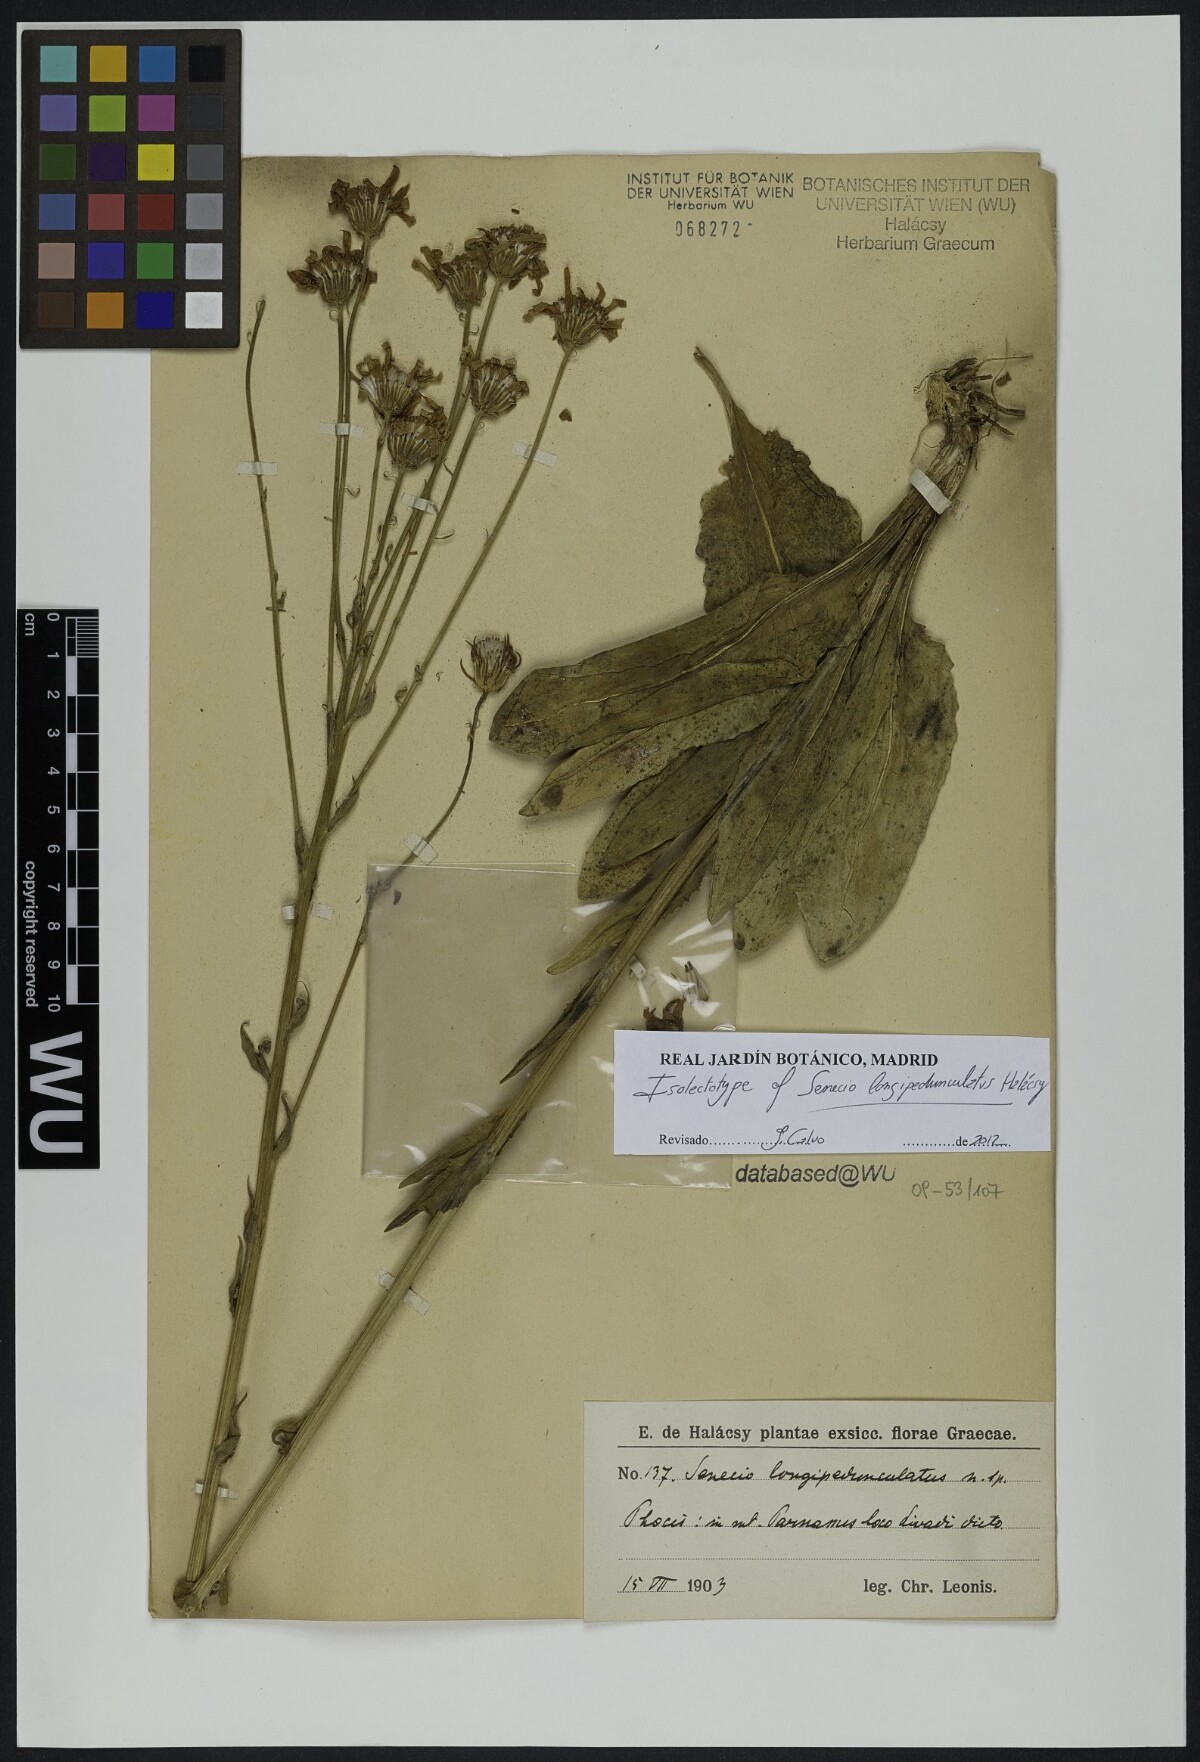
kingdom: Plantae
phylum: Tracheophyta
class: Magnoliopsida
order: Asterales
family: Asteraceae
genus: Senecio
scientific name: Senecio macedonicus
